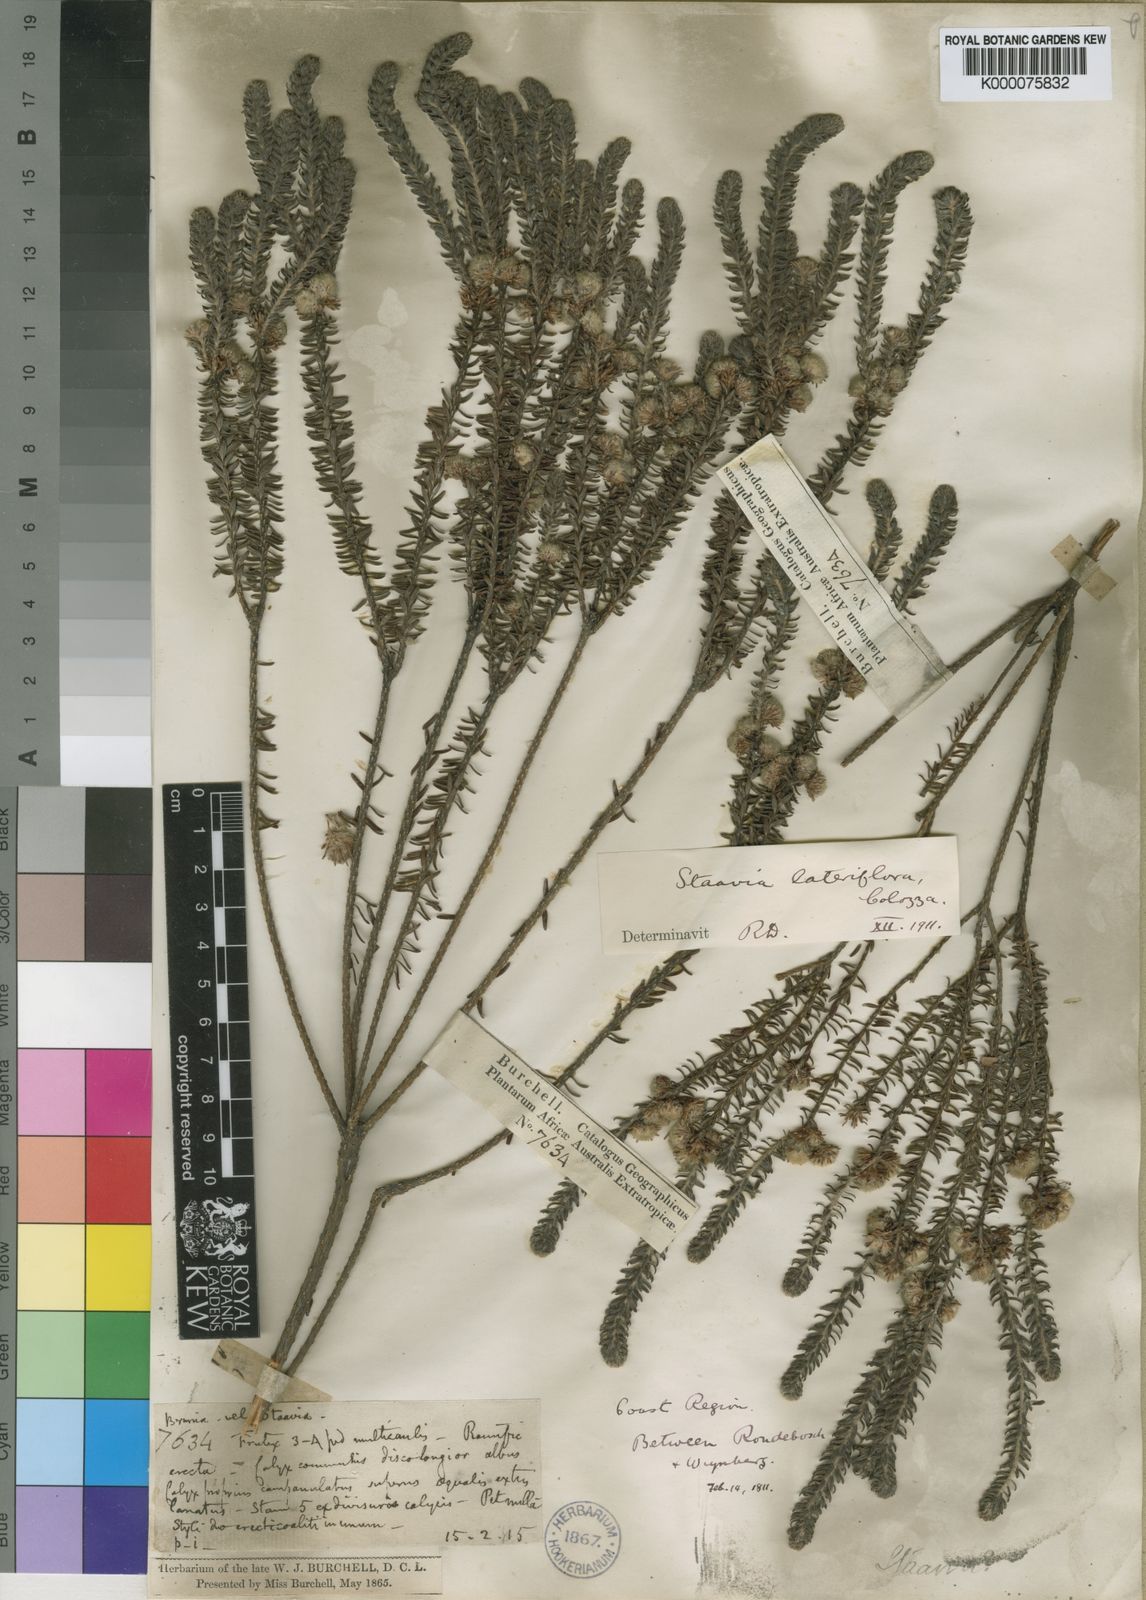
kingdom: Plantae
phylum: Tracheophyta
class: Magnoliopsida
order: Bruniales
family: Bruniaceae
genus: Staavia
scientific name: Staavia capitella
